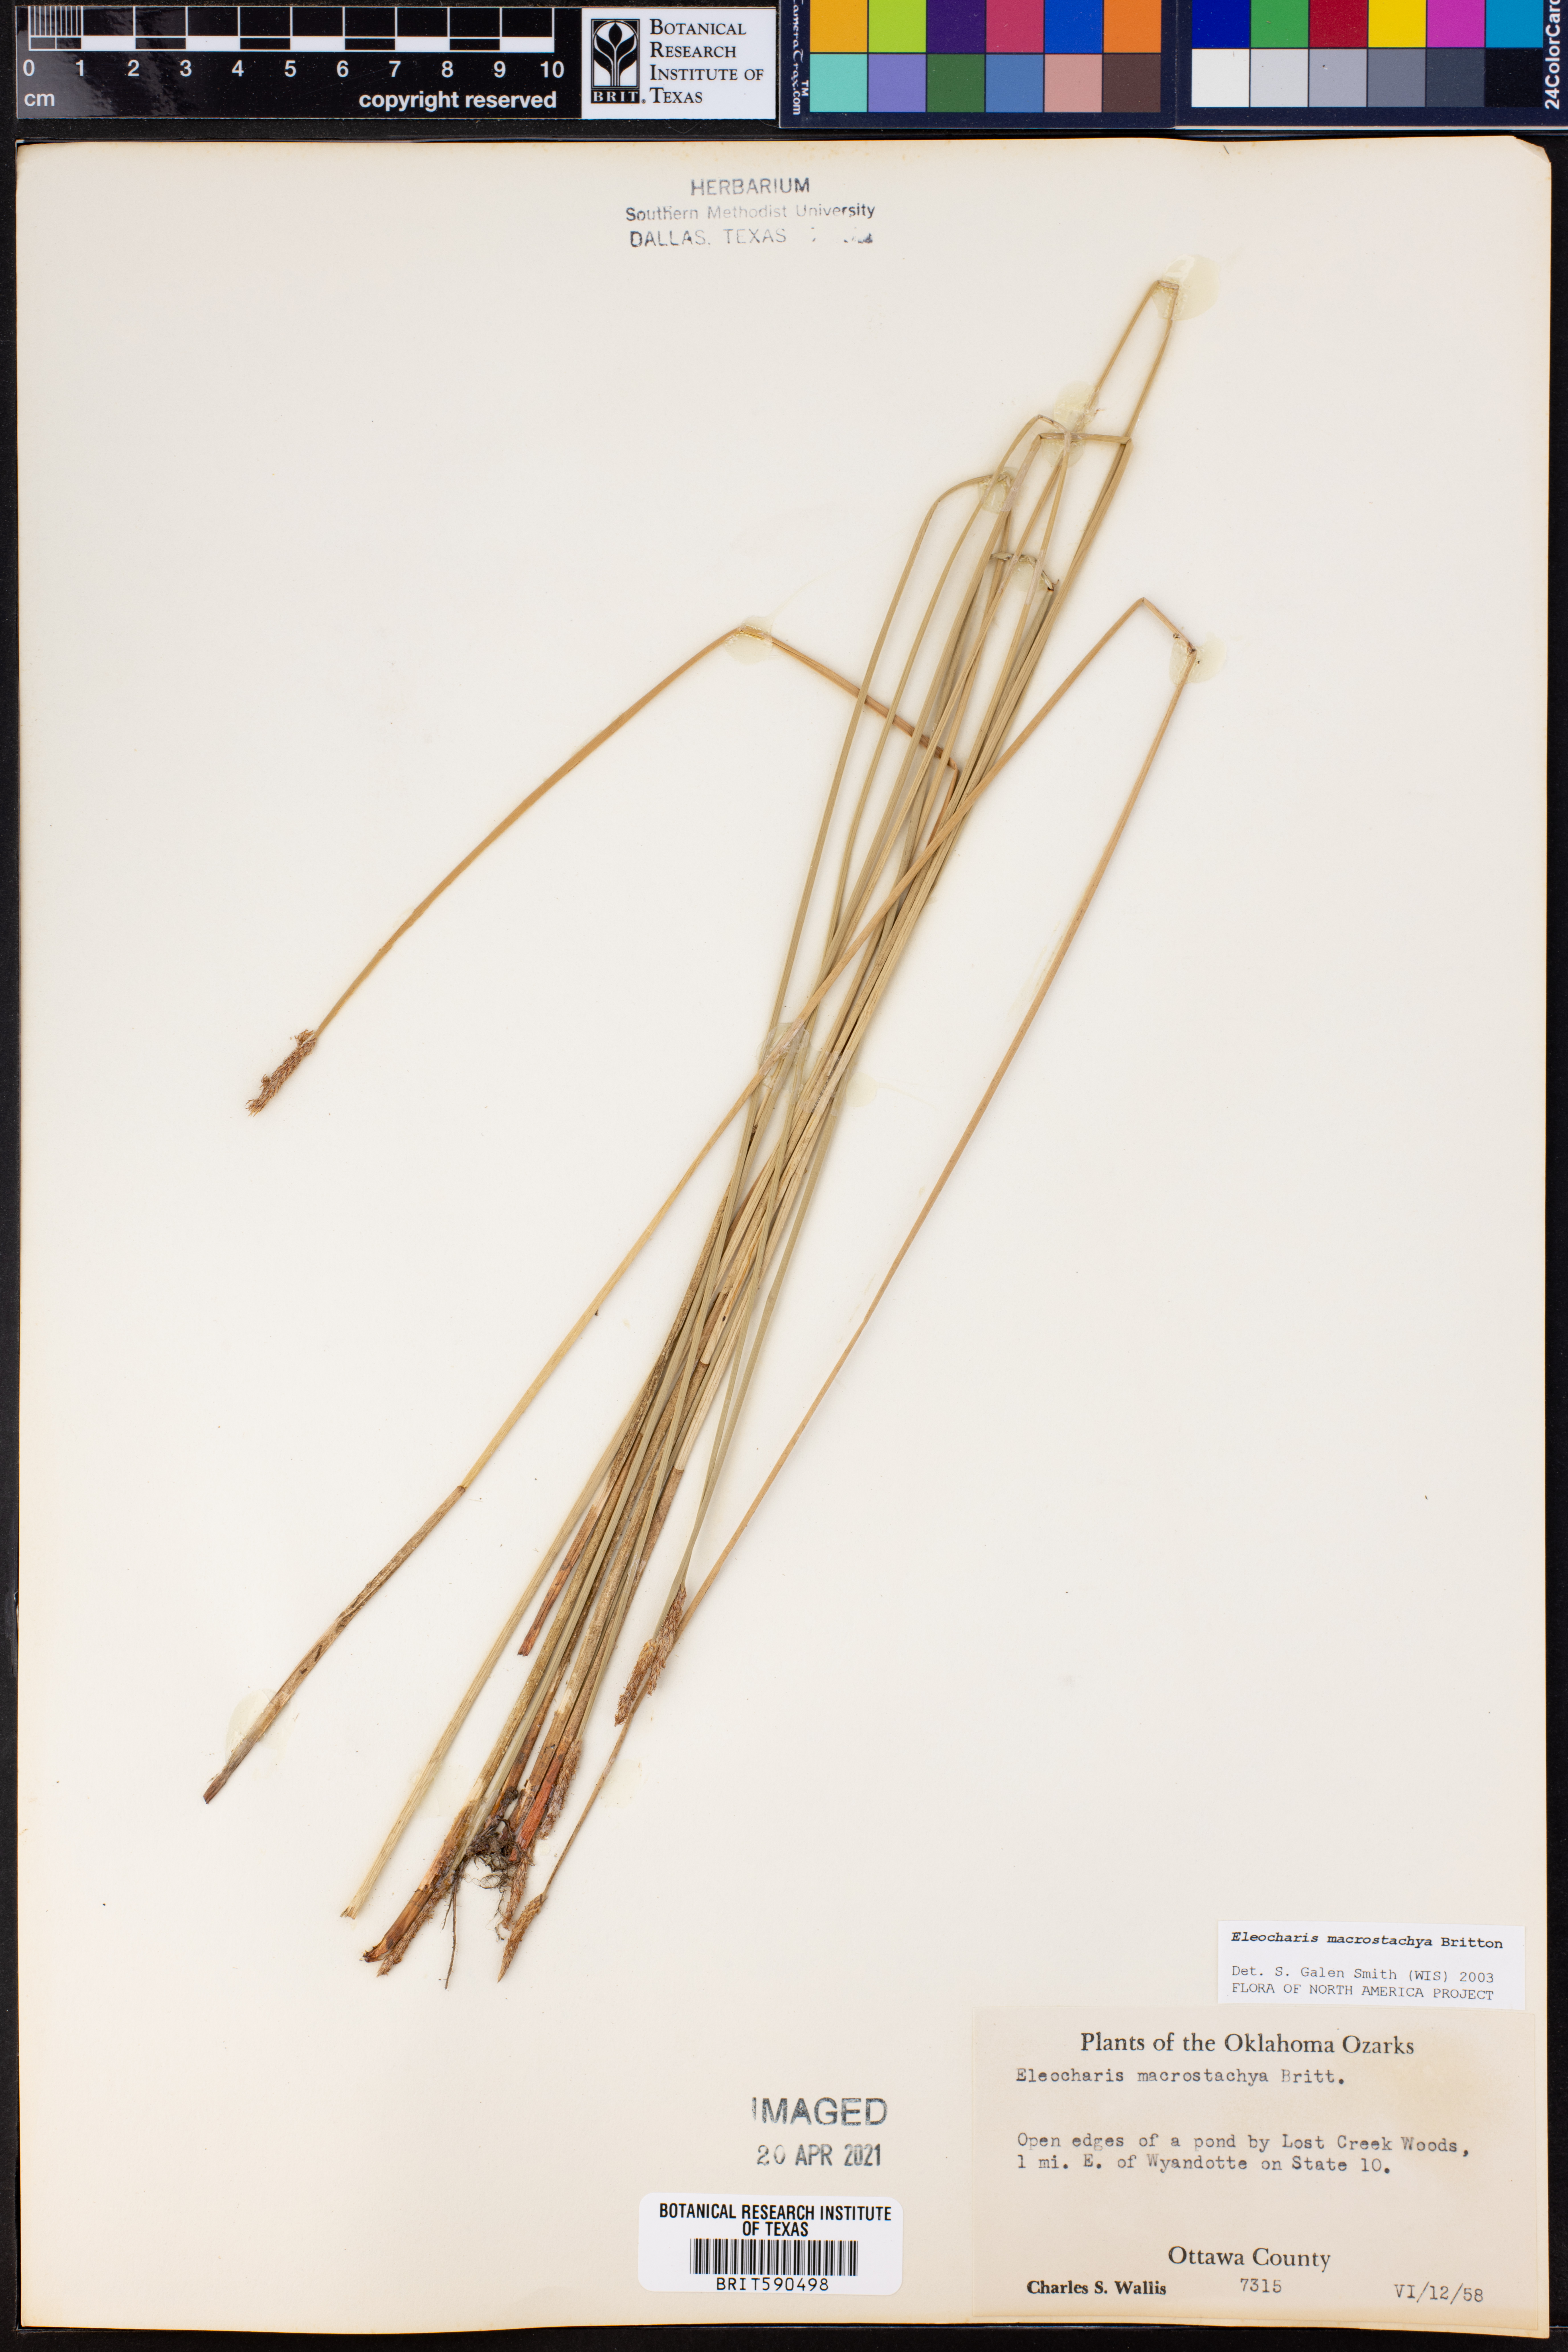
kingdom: Plantae
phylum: Tracheophyta
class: Liliopsida
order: Poales
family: Cyperaceae
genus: Eleocharis
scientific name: Eleocharis macrostachya
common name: Pale spikerush
